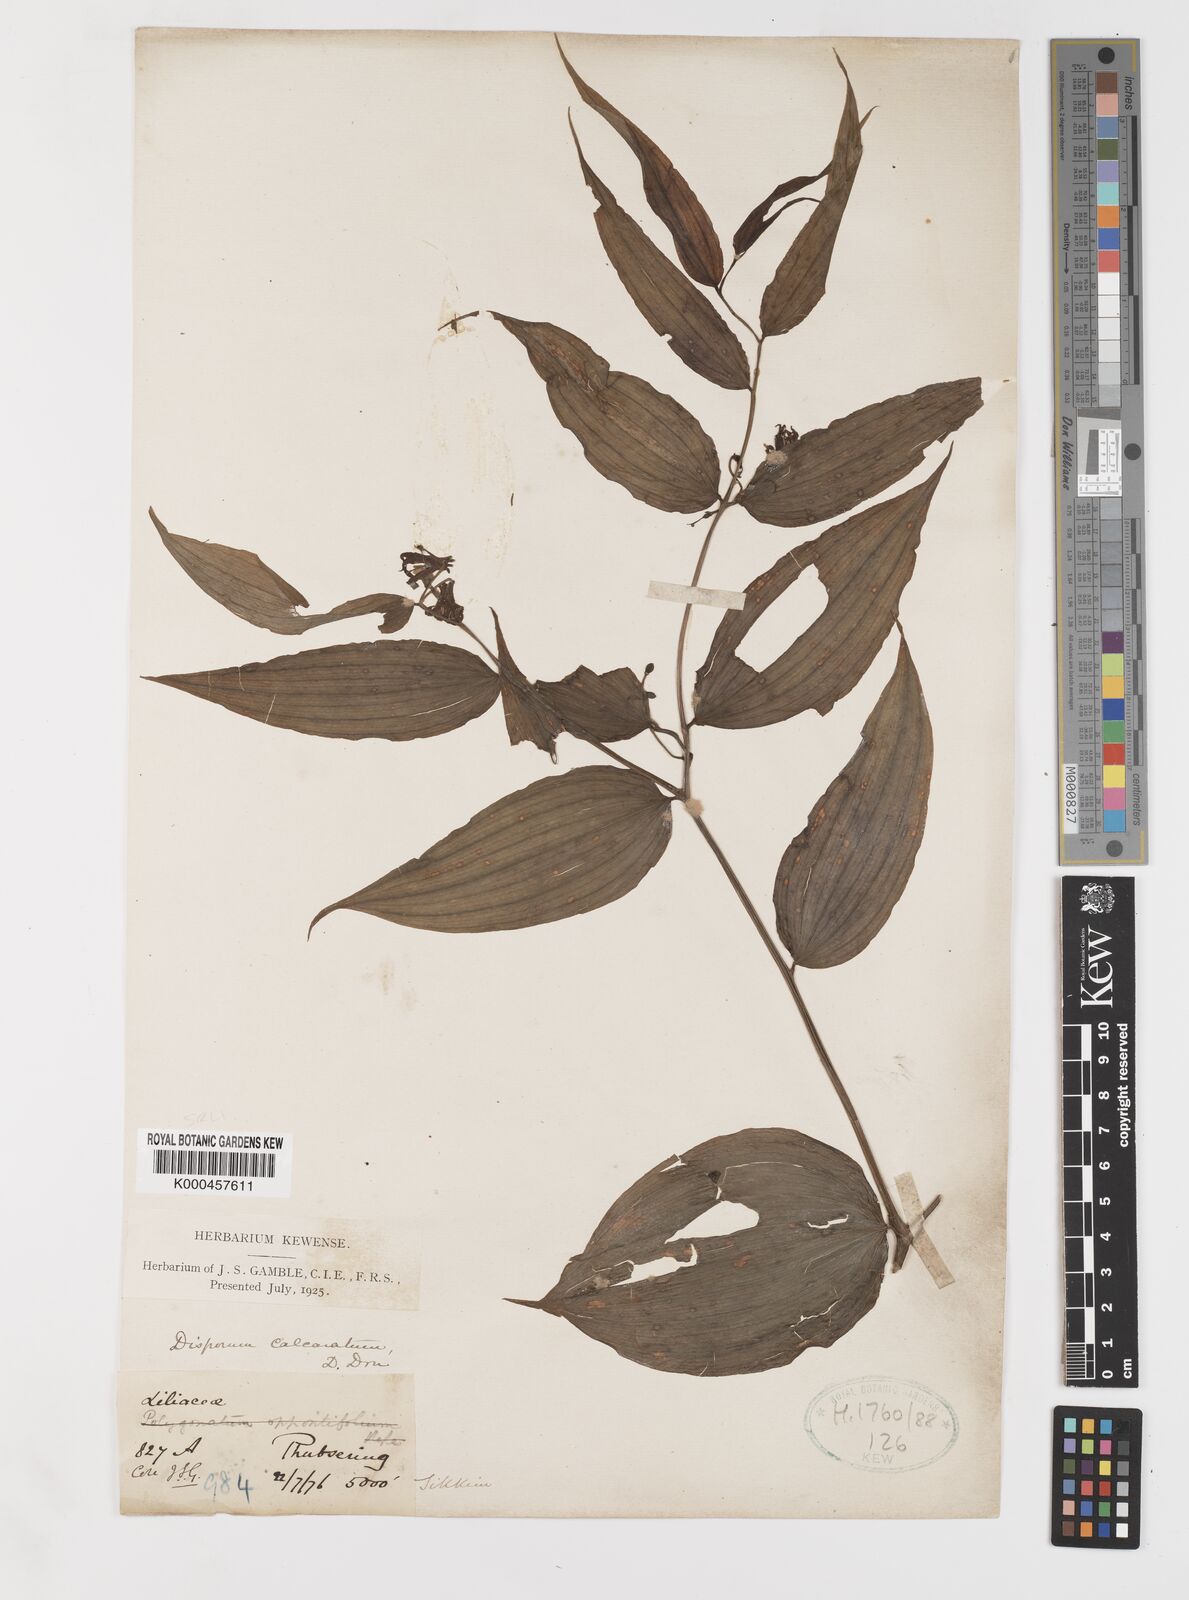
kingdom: Plantae
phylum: Tracheophyta
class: Liliopsida
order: Liliales
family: Colchicaceae
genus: Disporum
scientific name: Disporum calcaratum
